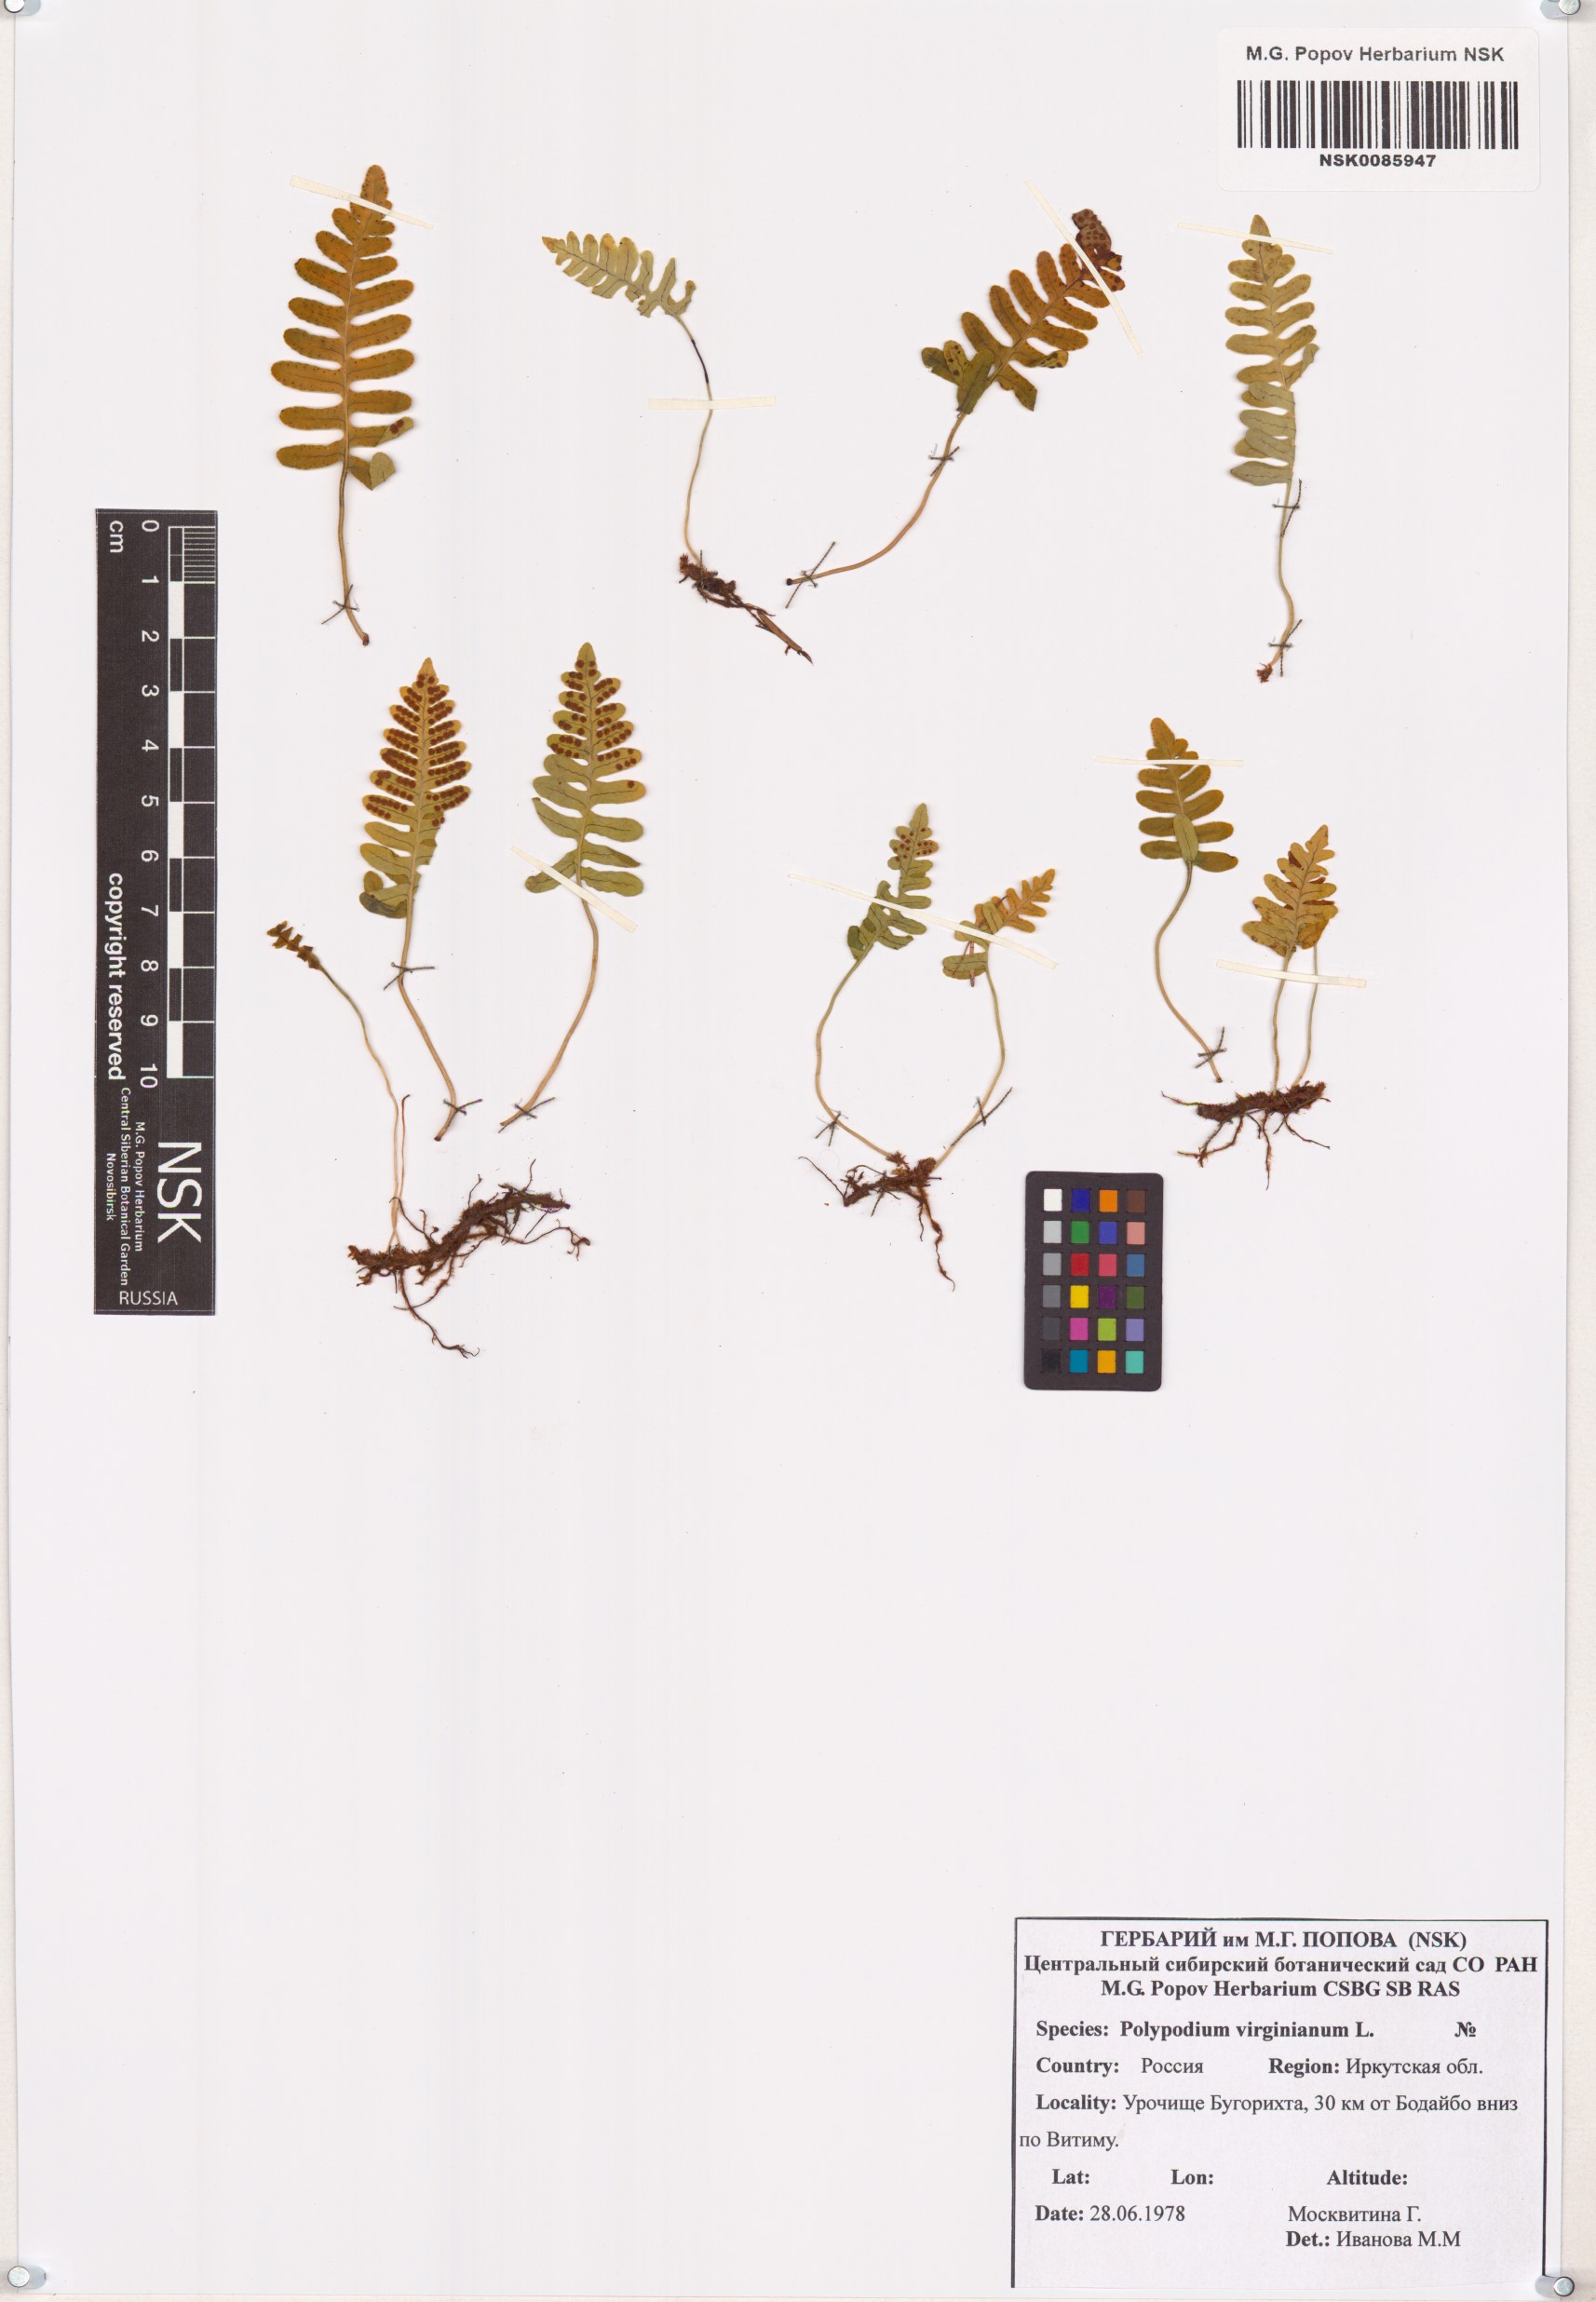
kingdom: Plantae
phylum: Tracheophyta
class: Polypodiopsida
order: Polypodiales
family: Polypodiaceae
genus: Polypodium
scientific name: Polypodium virginianum
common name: American wall fern
